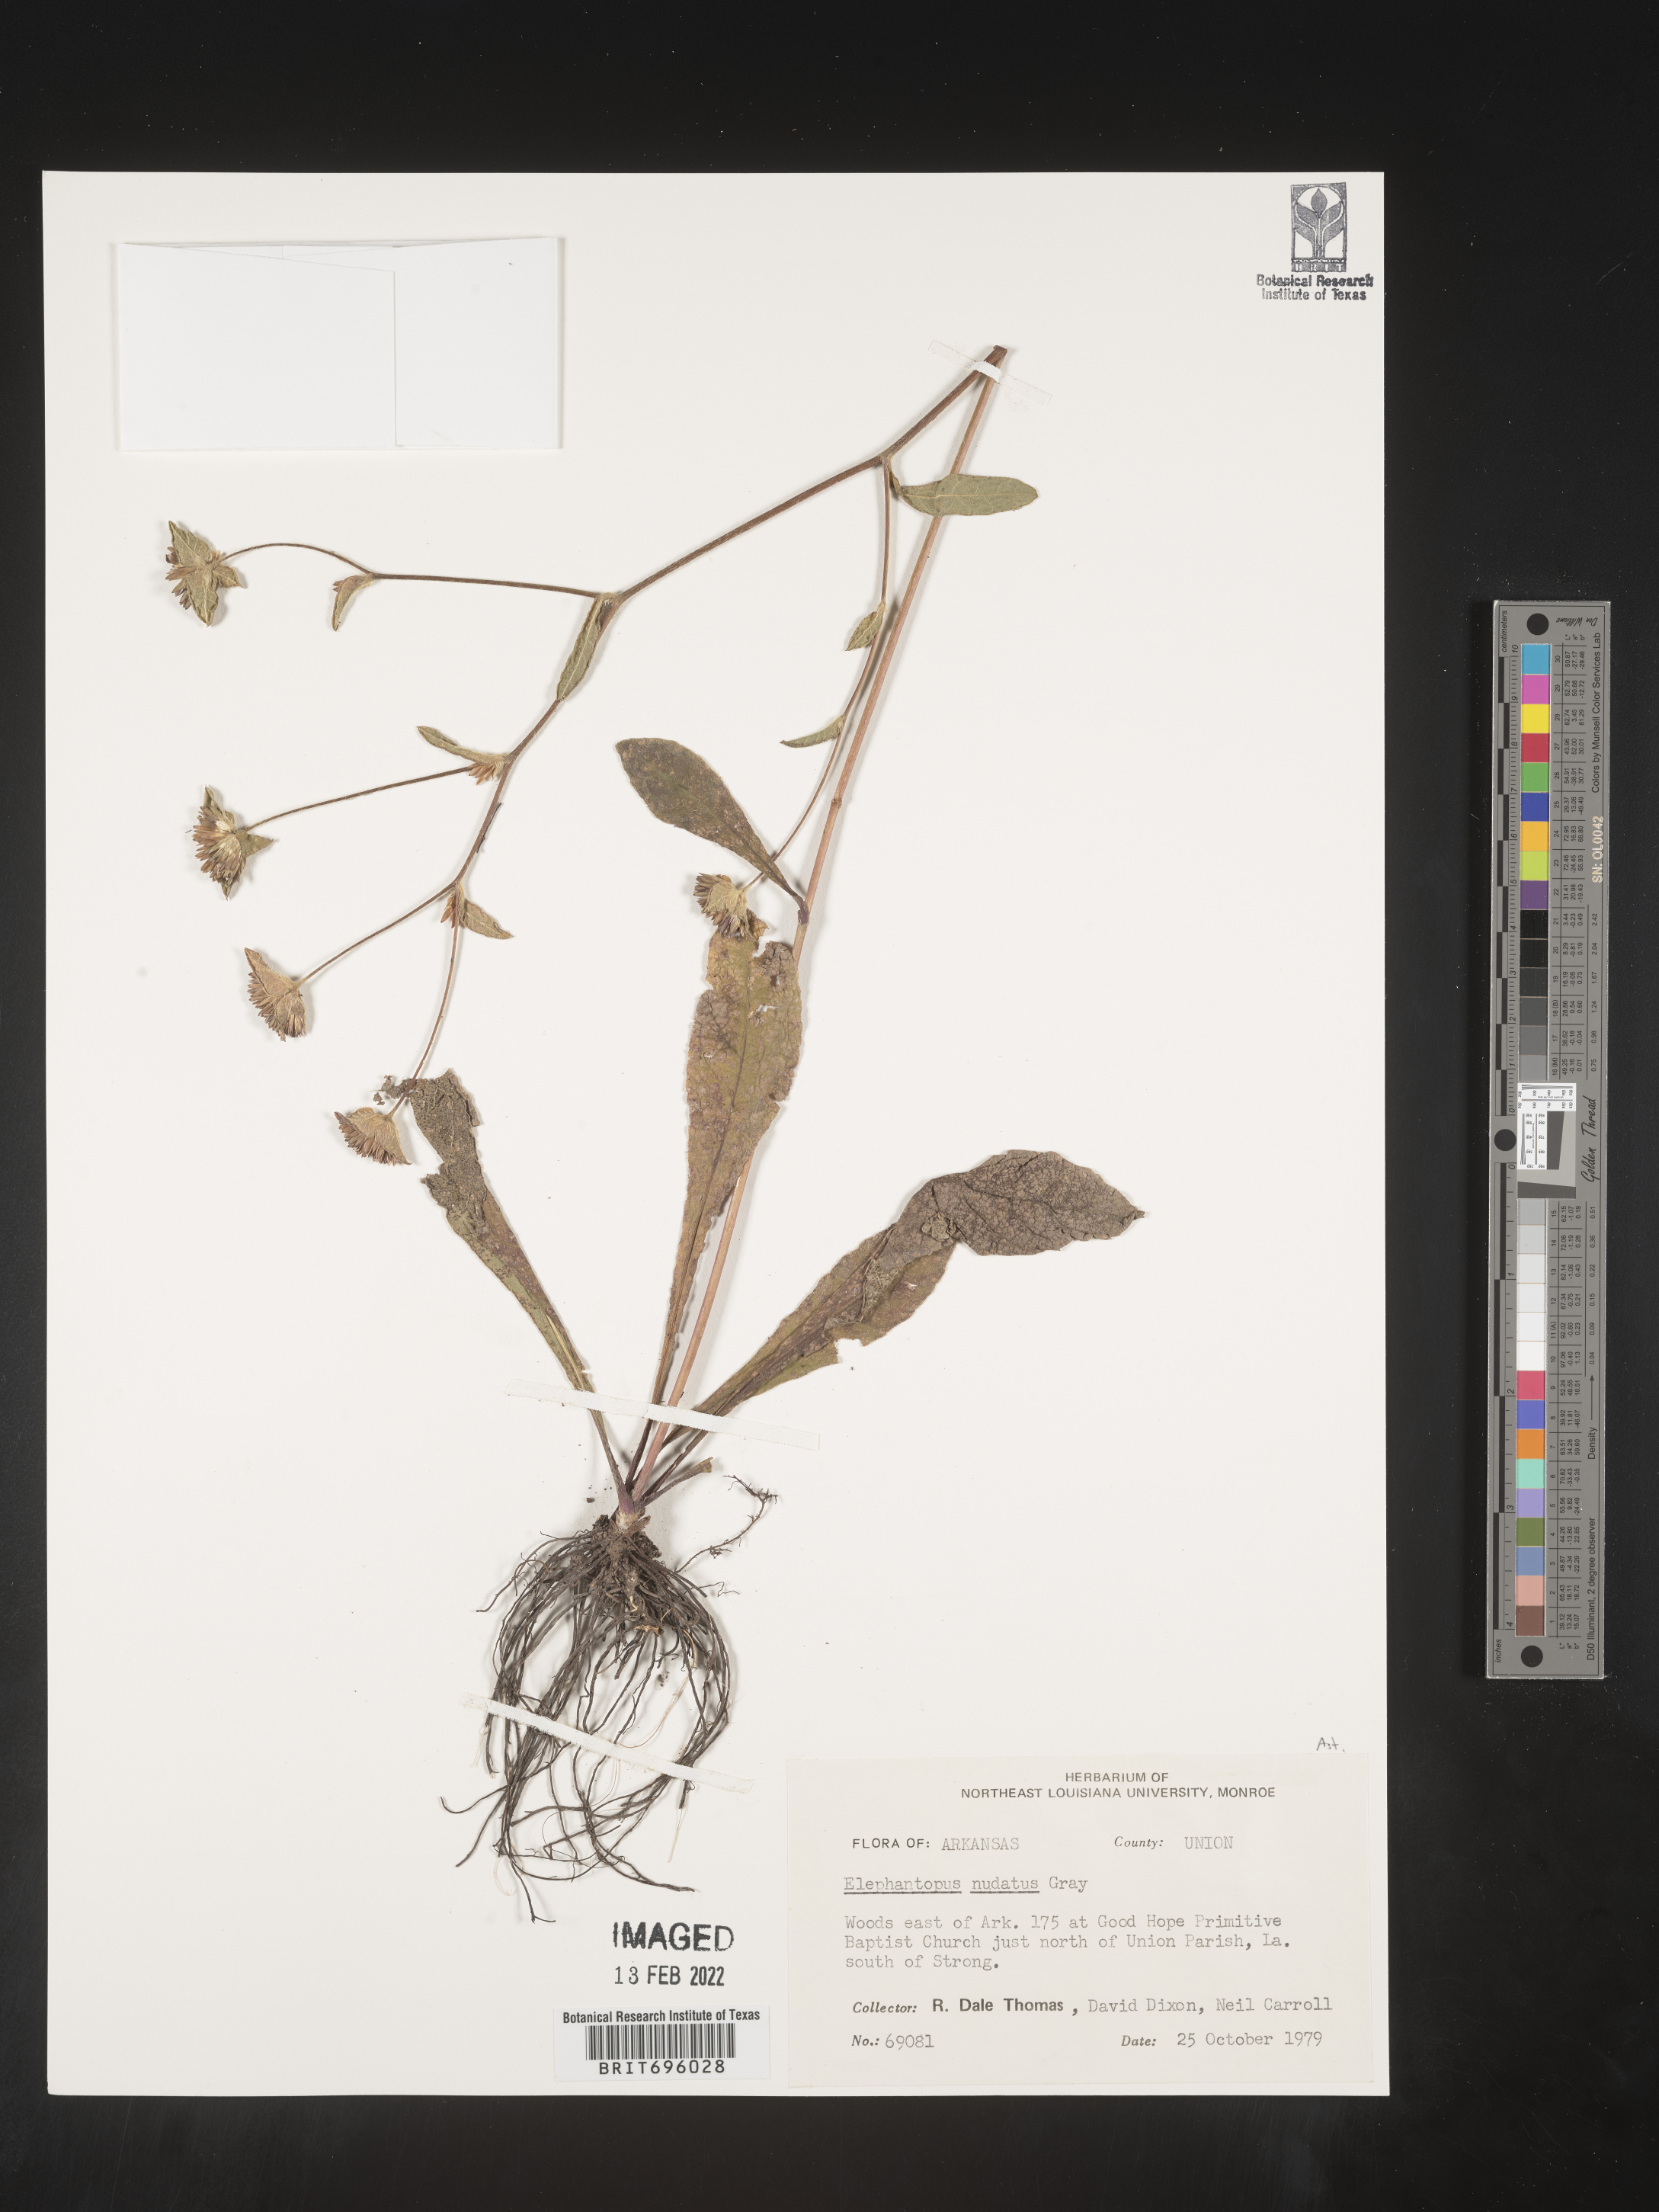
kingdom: Plantae
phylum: Tracheophyta
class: Magnoliopsida
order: Asterales
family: Asteraceae
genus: Elephantopus
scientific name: Elephantopus nudatus
